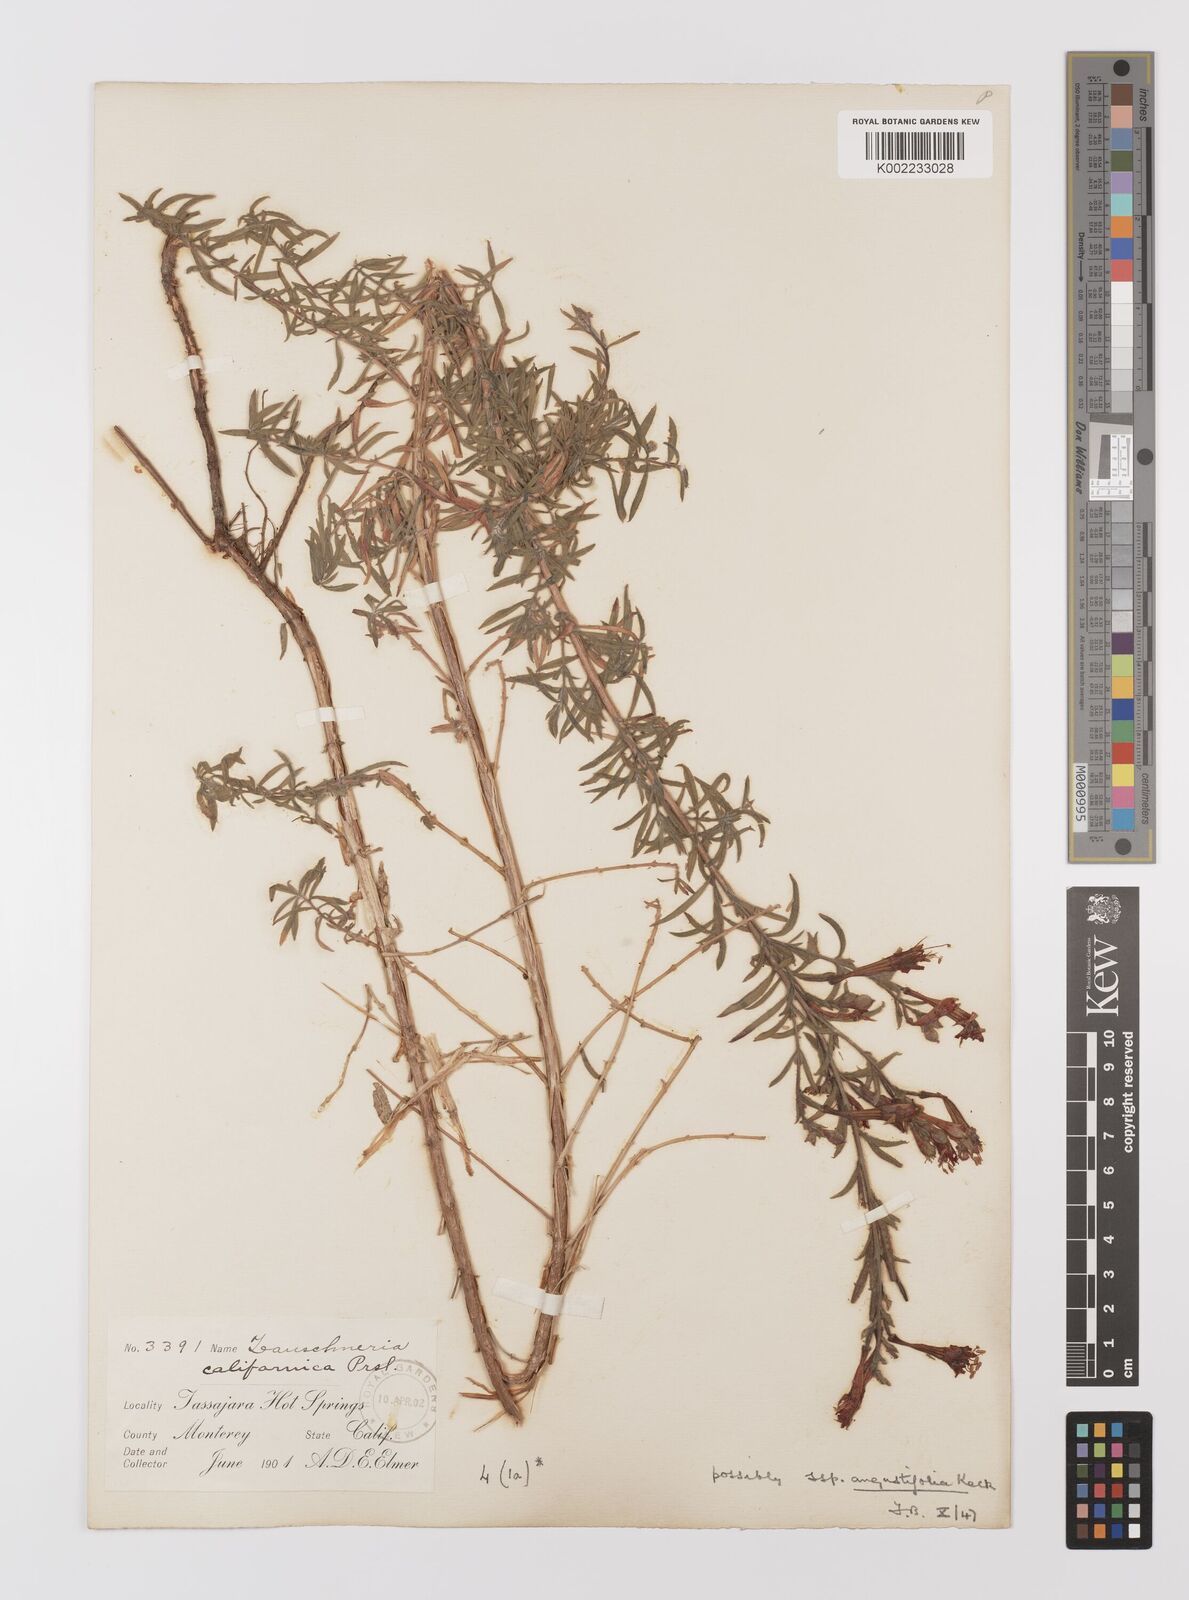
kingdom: Plantae
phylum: Tracheophyta
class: Magnoliopsida
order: Myrtales
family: Onagraceae
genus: Epilobium
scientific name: Epilobium ciliatum
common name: American willowherb
